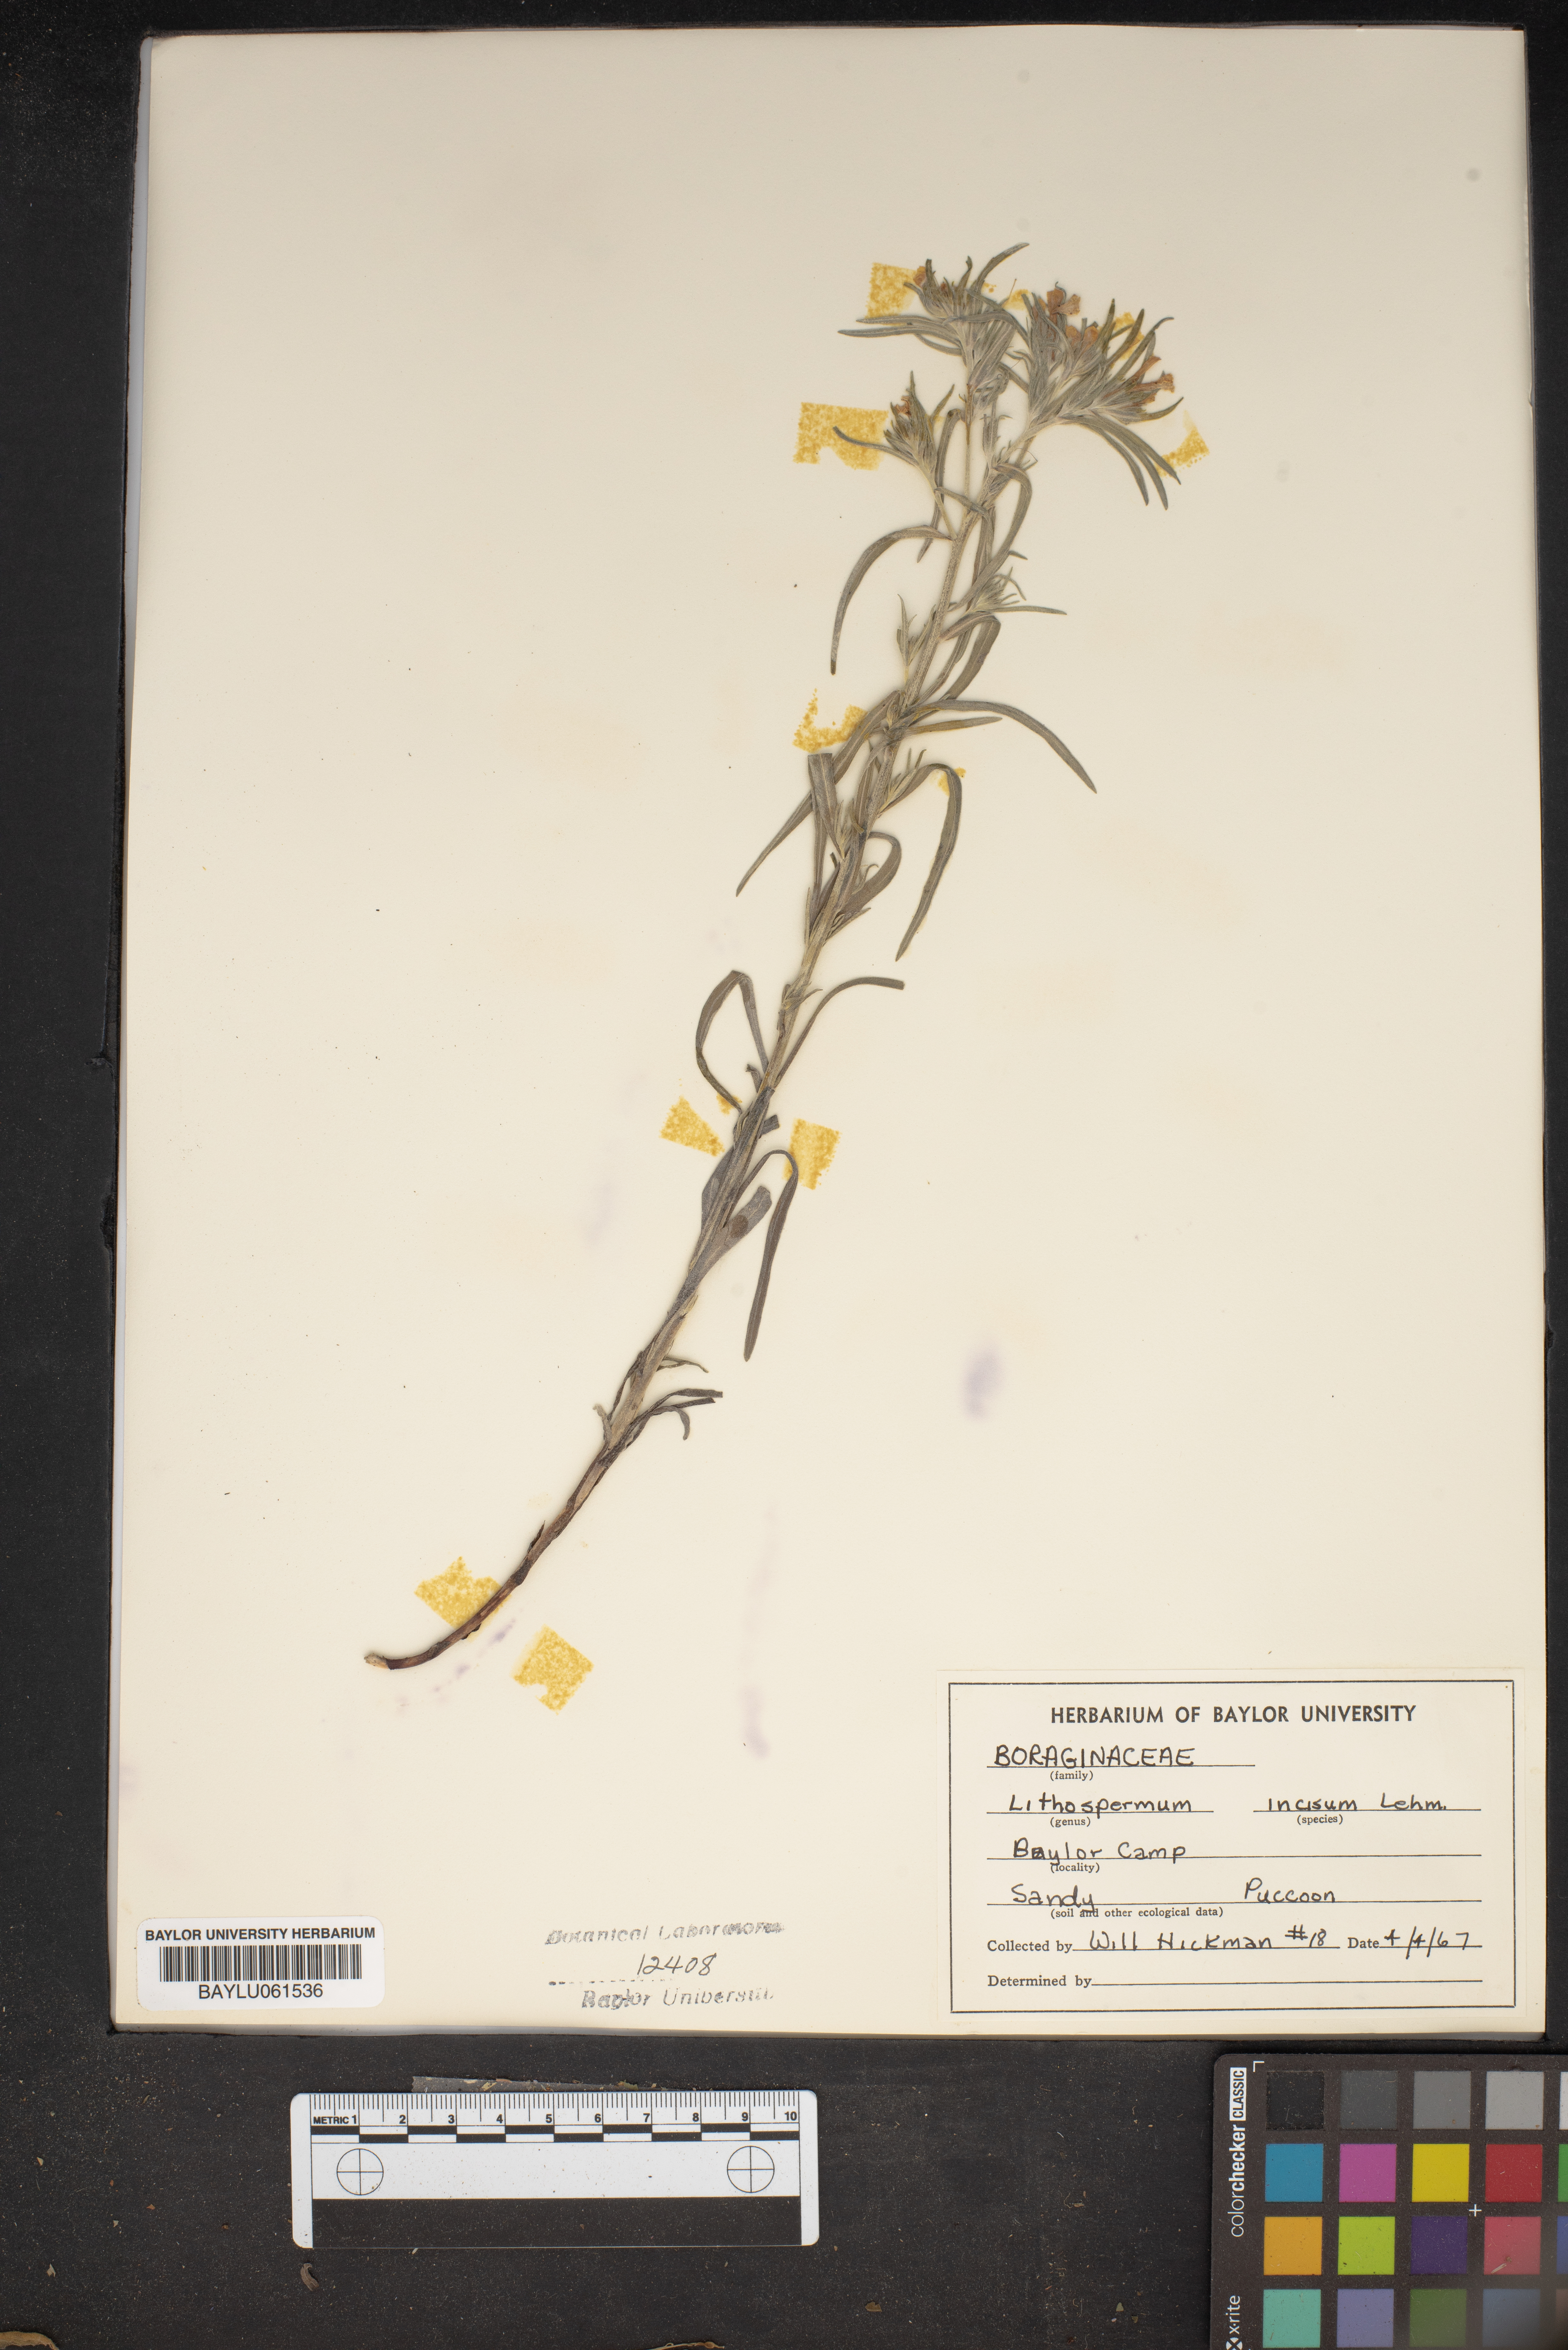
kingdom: Plantae
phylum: Tracheophyta
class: Magnoliopsida
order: Boraginales
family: Boraginaceae
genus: Lithospermum
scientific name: Lithospermum incisum
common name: Fringed gromwell
